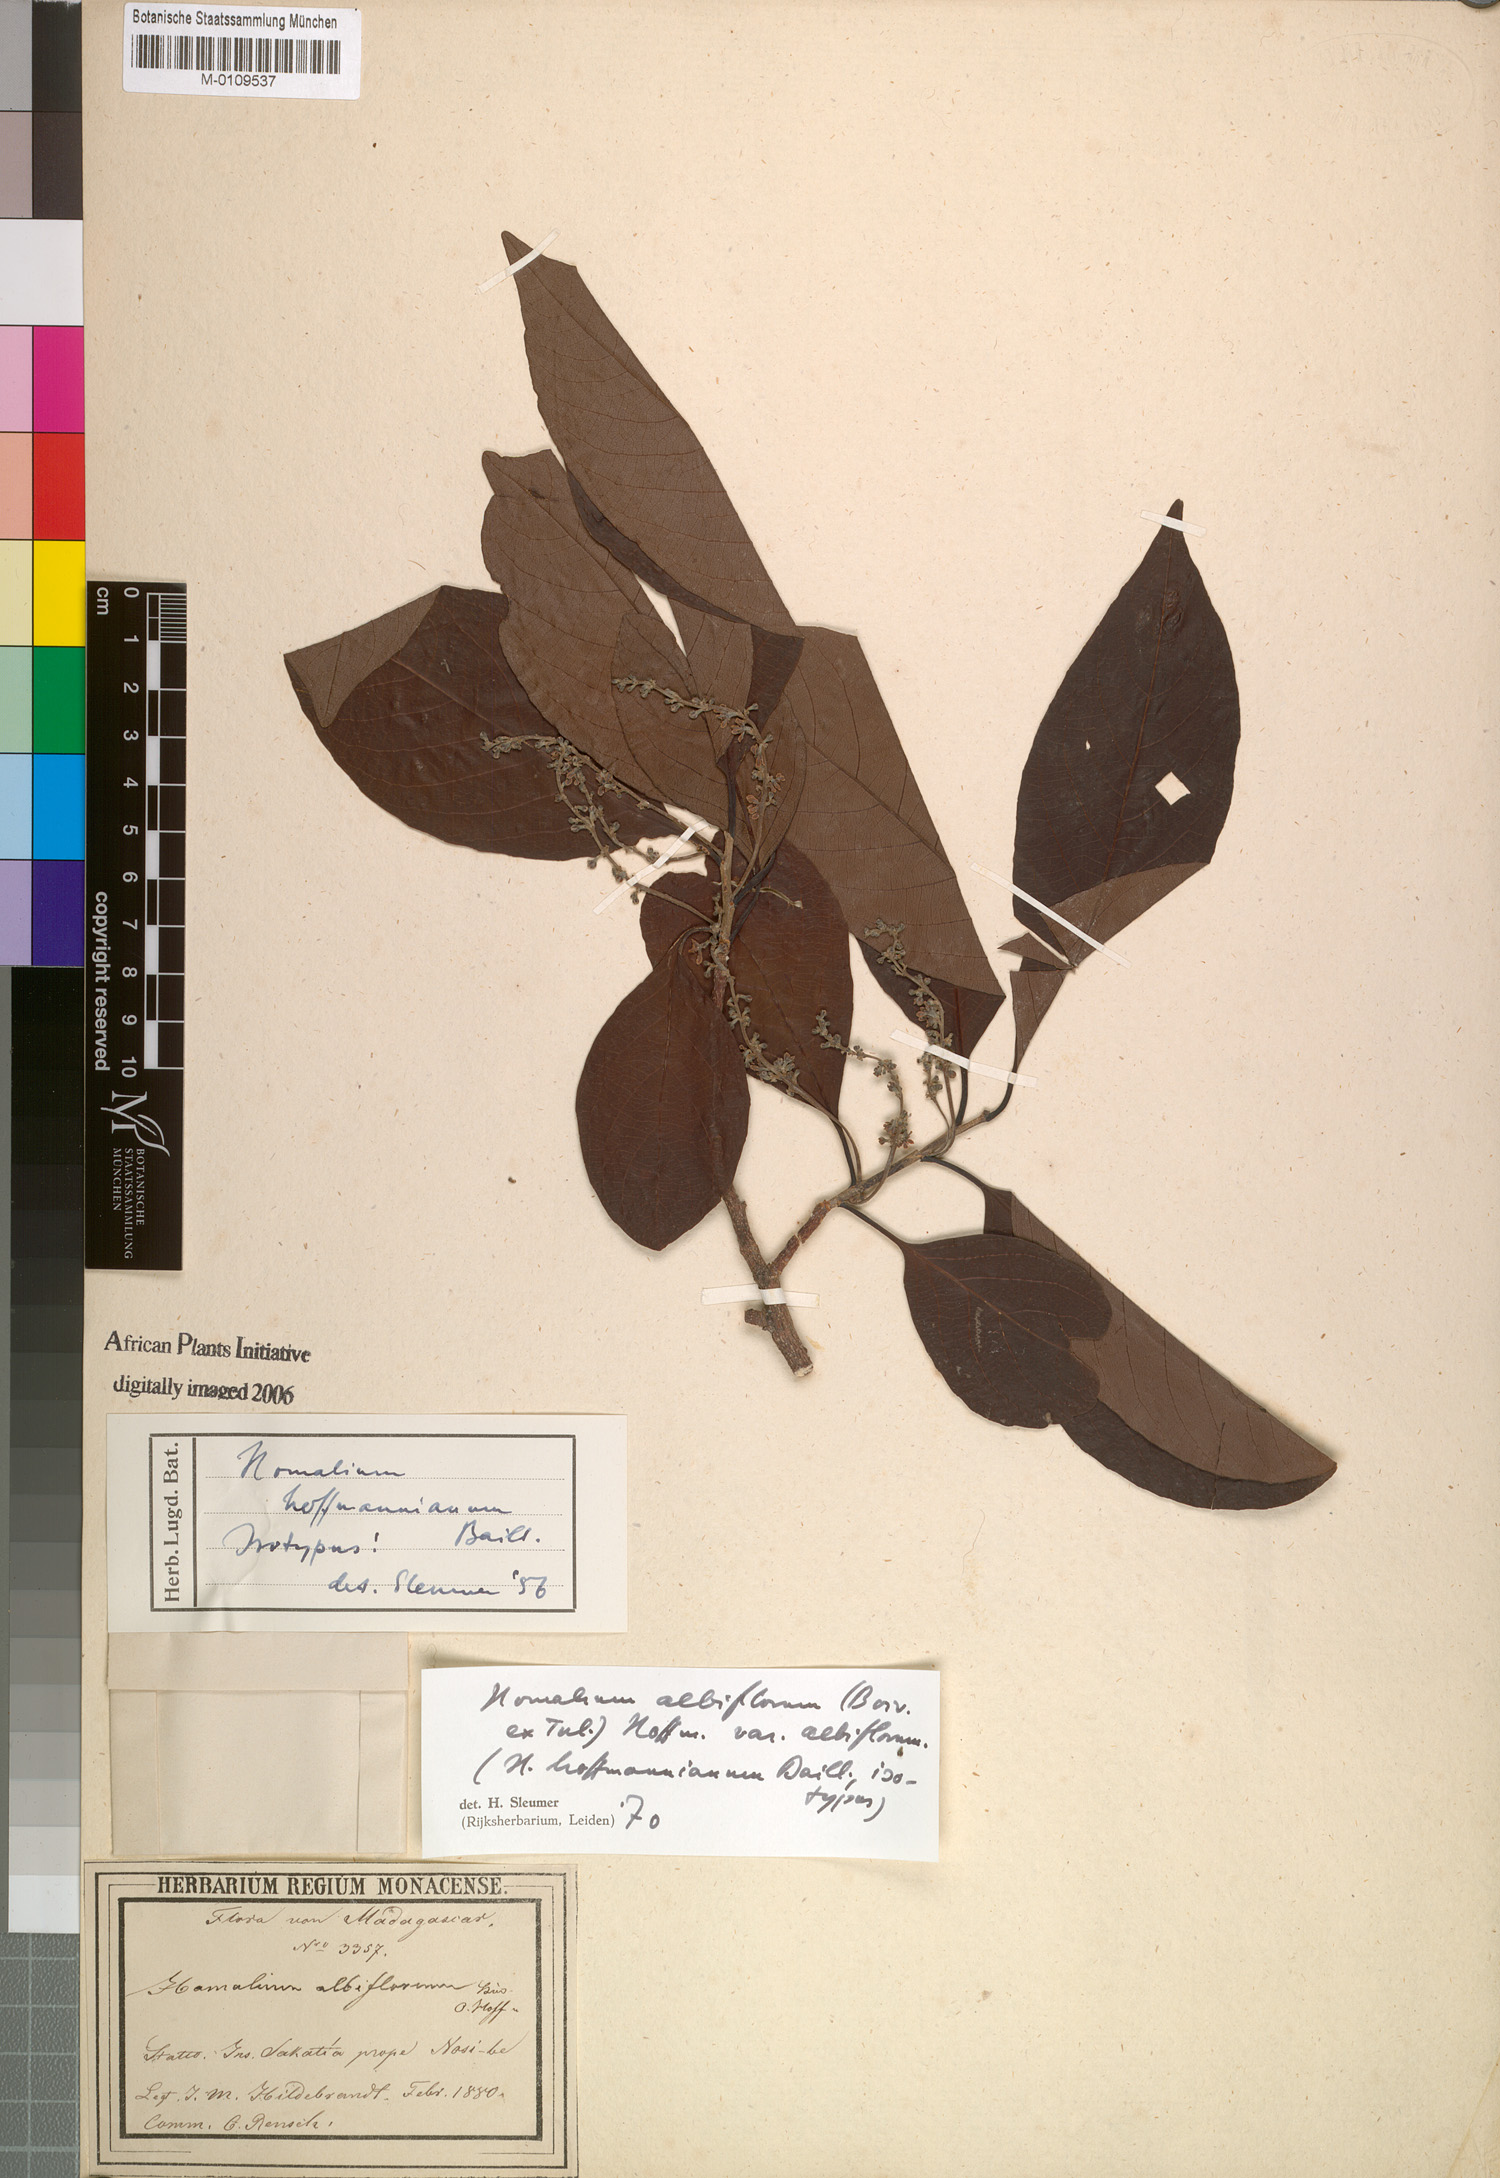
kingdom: Plantae
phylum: Tracheophyta
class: Magnoliopsida
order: Malpighiales
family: Salicaceae
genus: Homalium
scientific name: Homalium albiflorum
